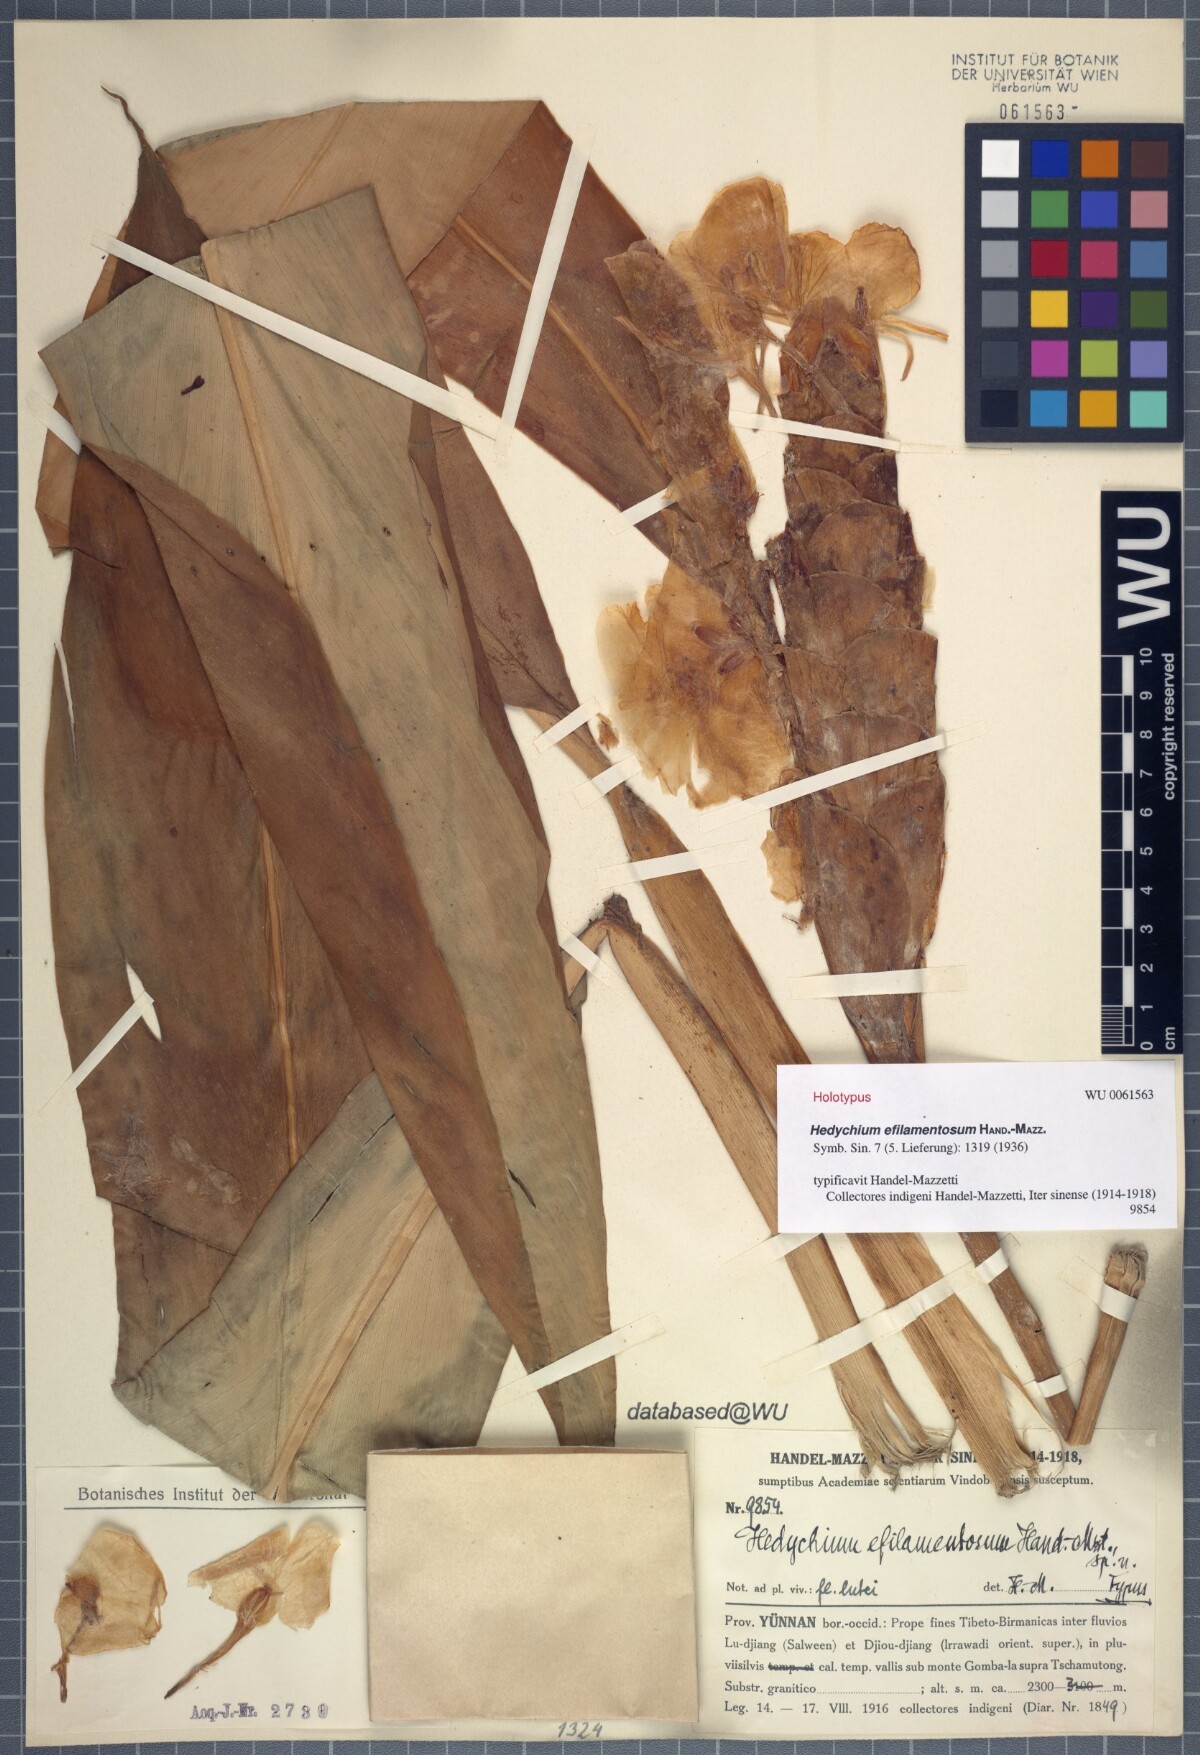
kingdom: Plantae
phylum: Tracheophyta
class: Liliopsida
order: Zingiberales
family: Zingiberaceae
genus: Hedychium
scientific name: Hedychium efilamentosum
